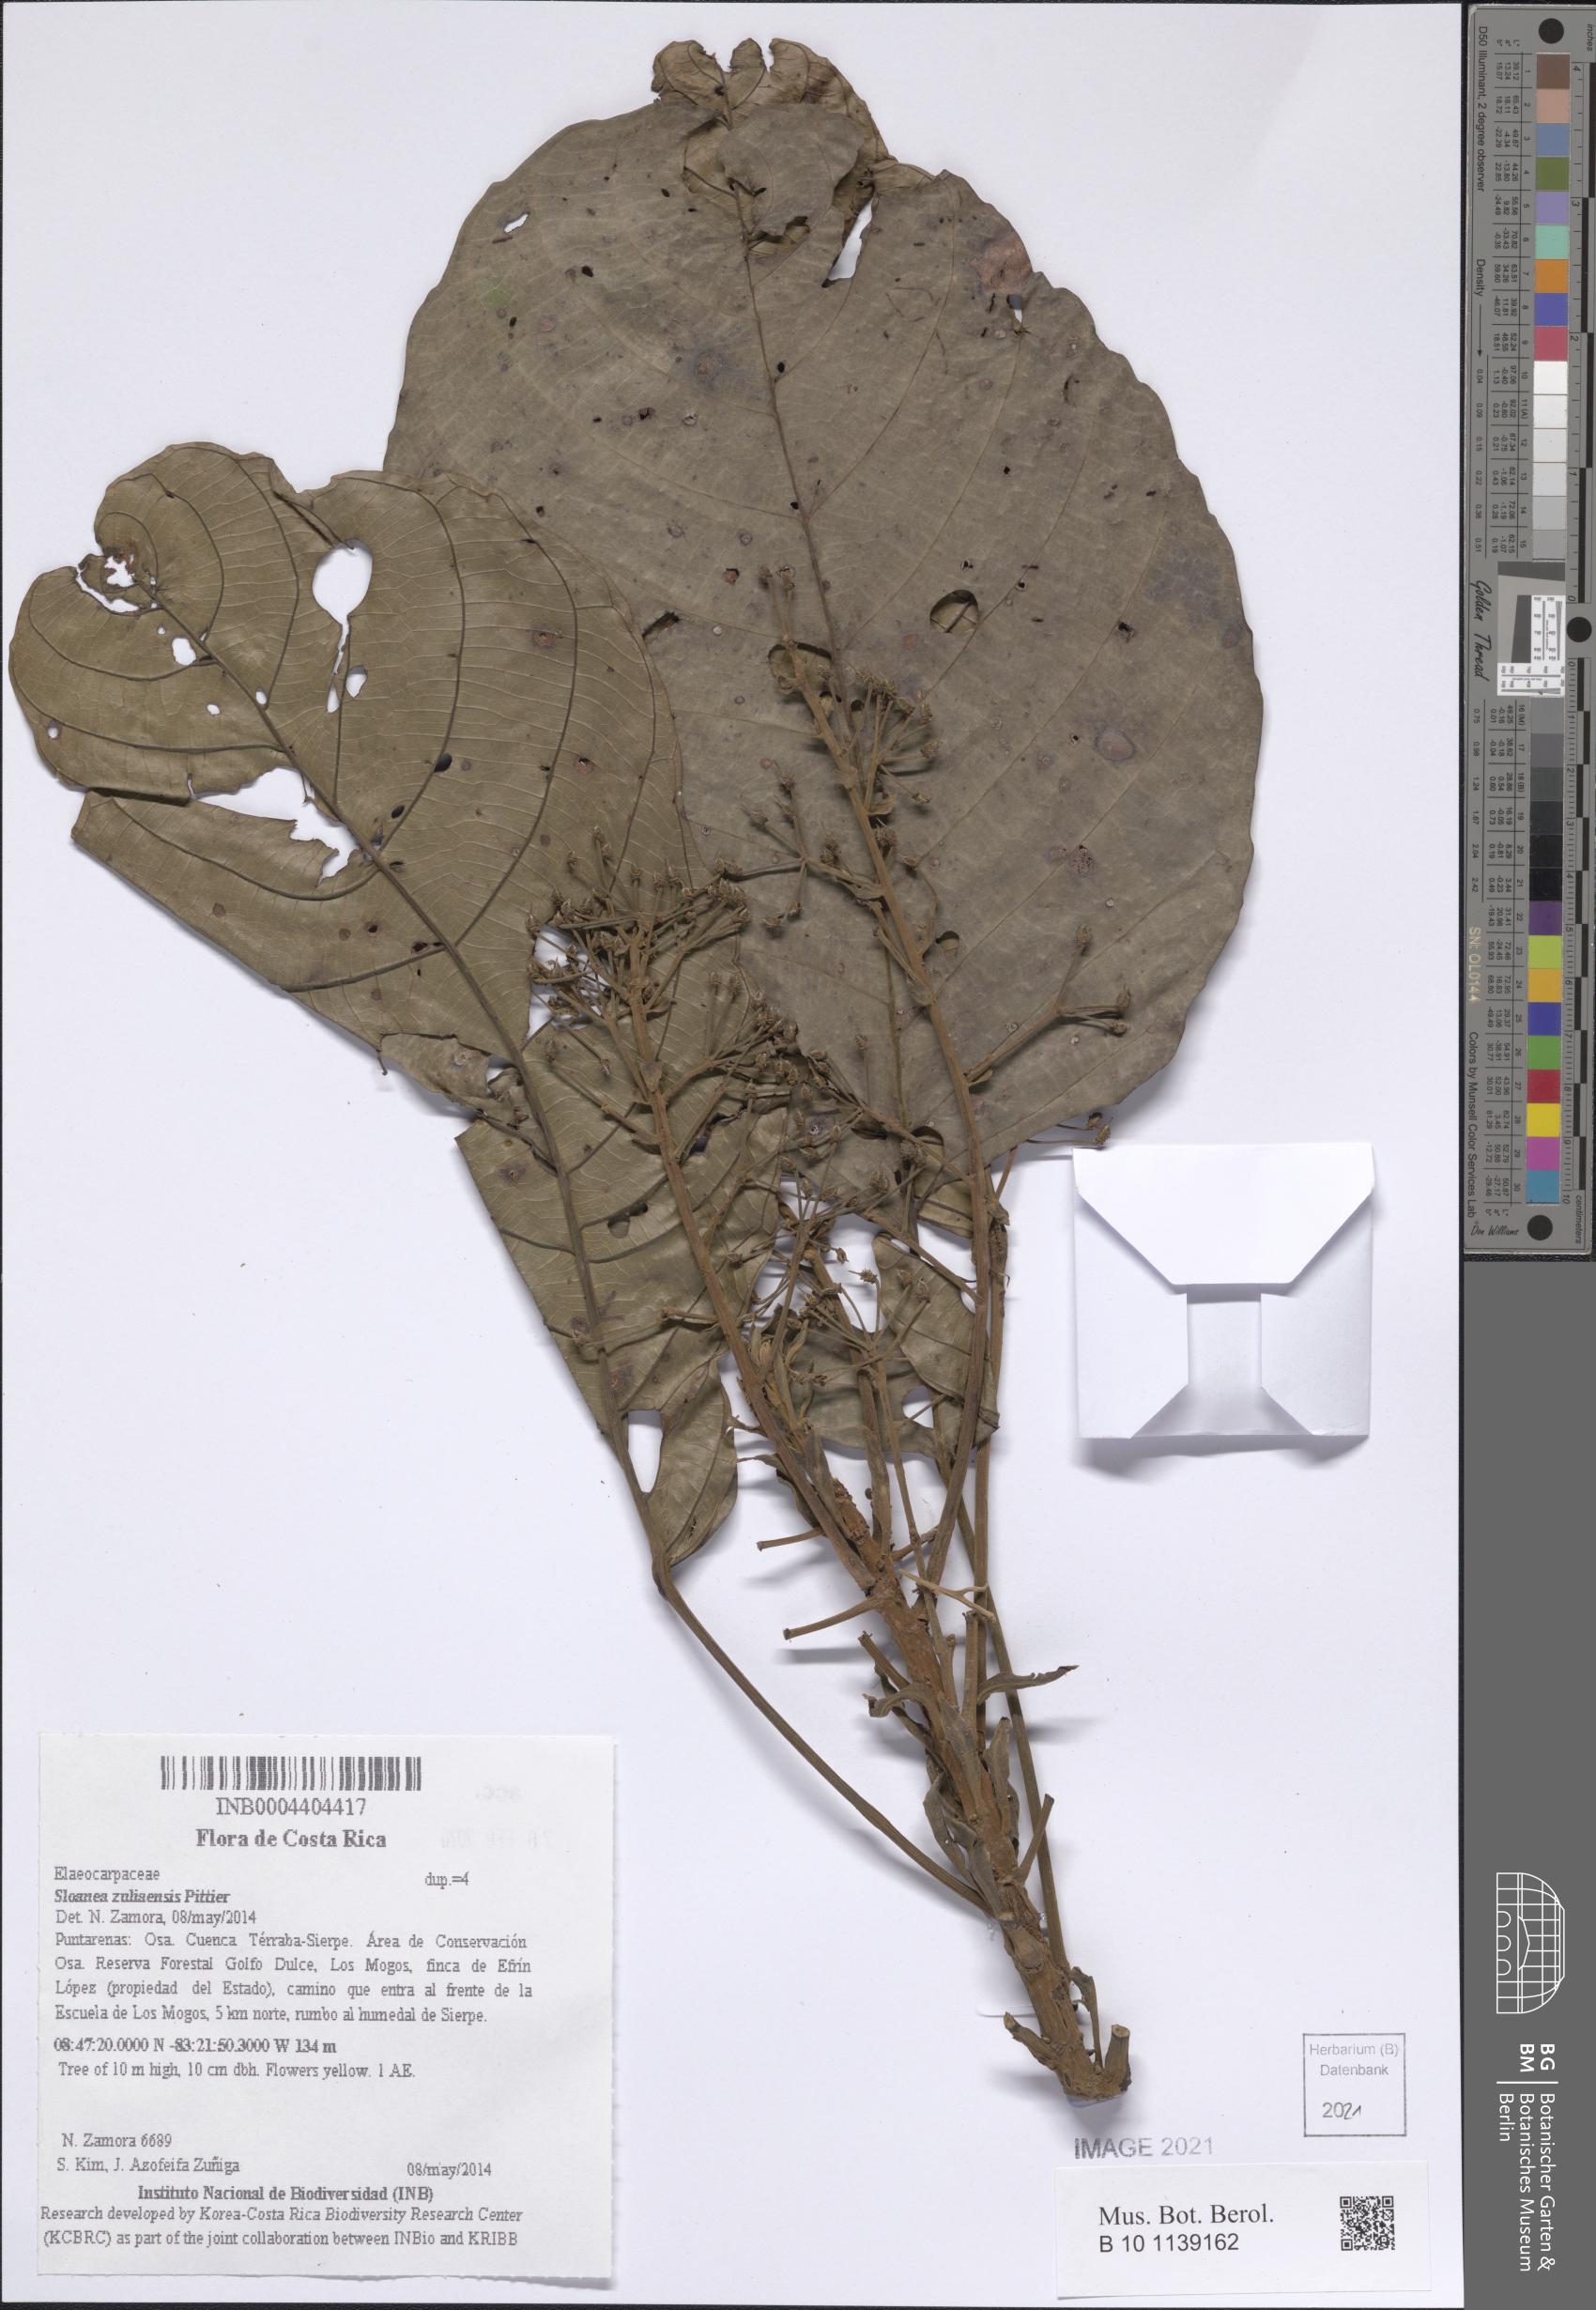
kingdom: Plantae
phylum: Tracheophyta
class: Magnoliopsida
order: Oxalidales
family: Elaeocarpaceae
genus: Sloanea
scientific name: Sloanea zuliaensis
